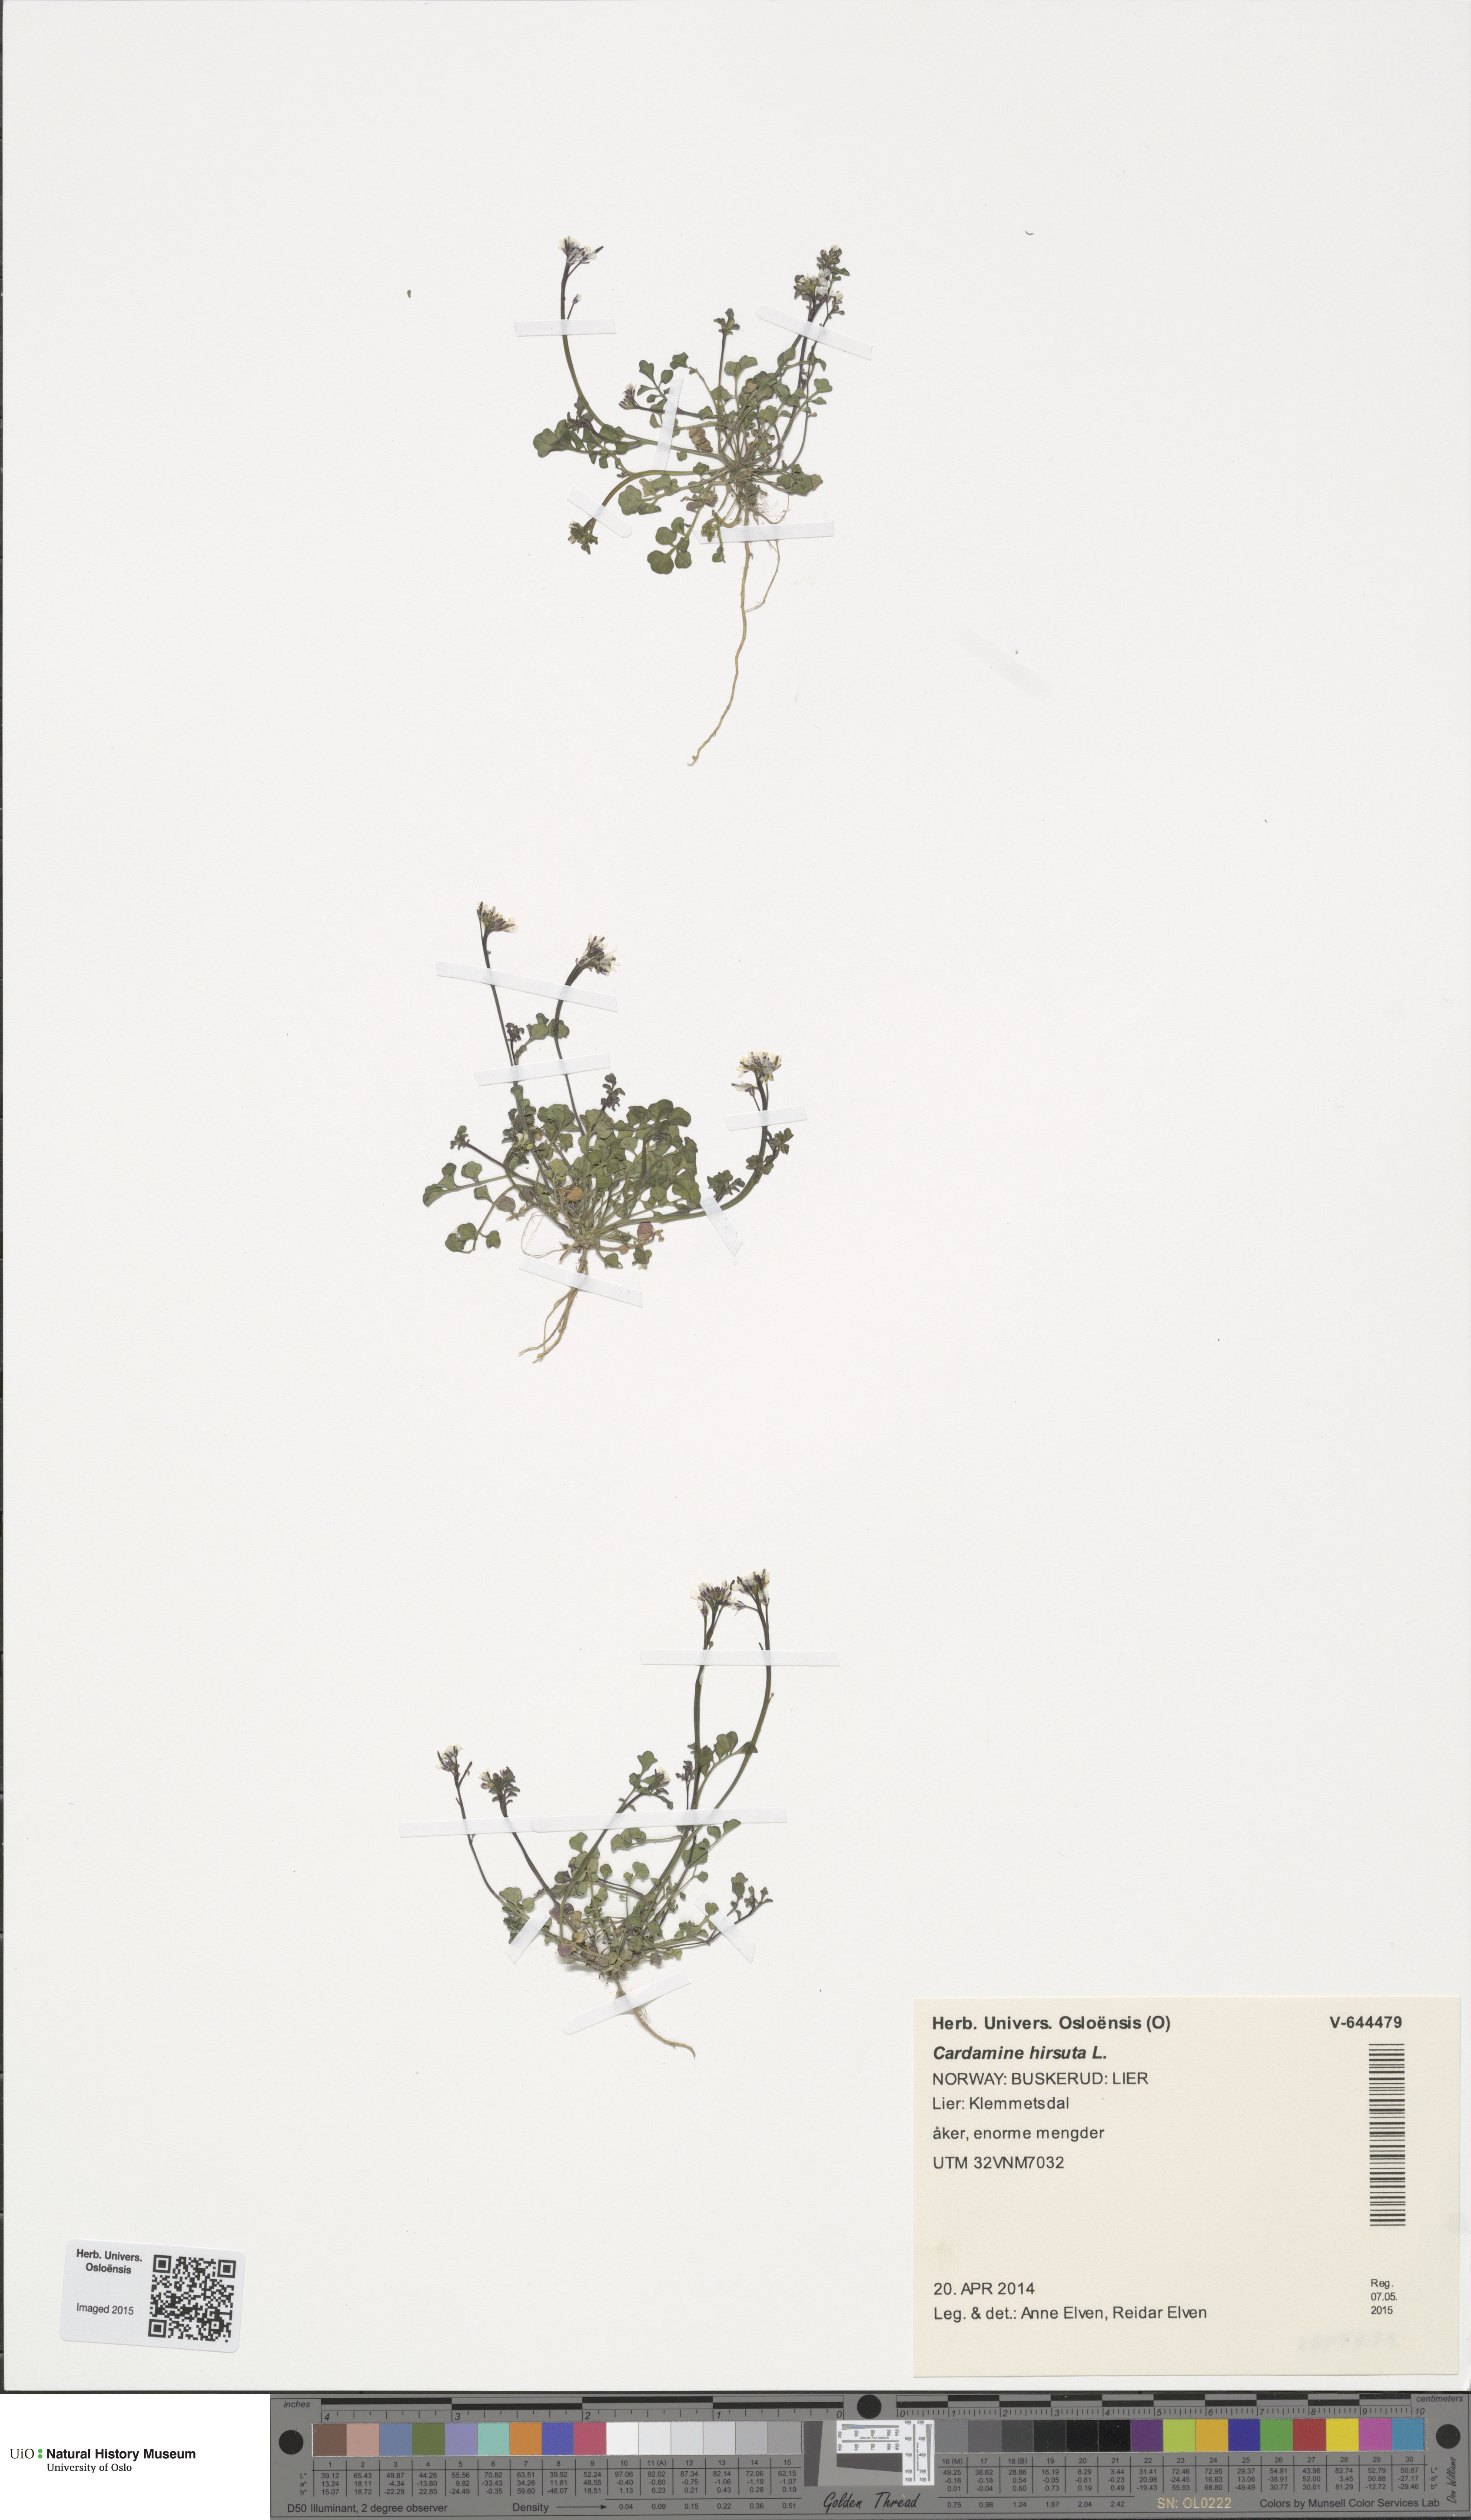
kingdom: Plantae
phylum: Tracheophyta
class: Magnoliopsida
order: Brassicales
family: Brassicaceae
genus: Cardamine
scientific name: Cardamine hirsuta
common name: Hairy bittercress
